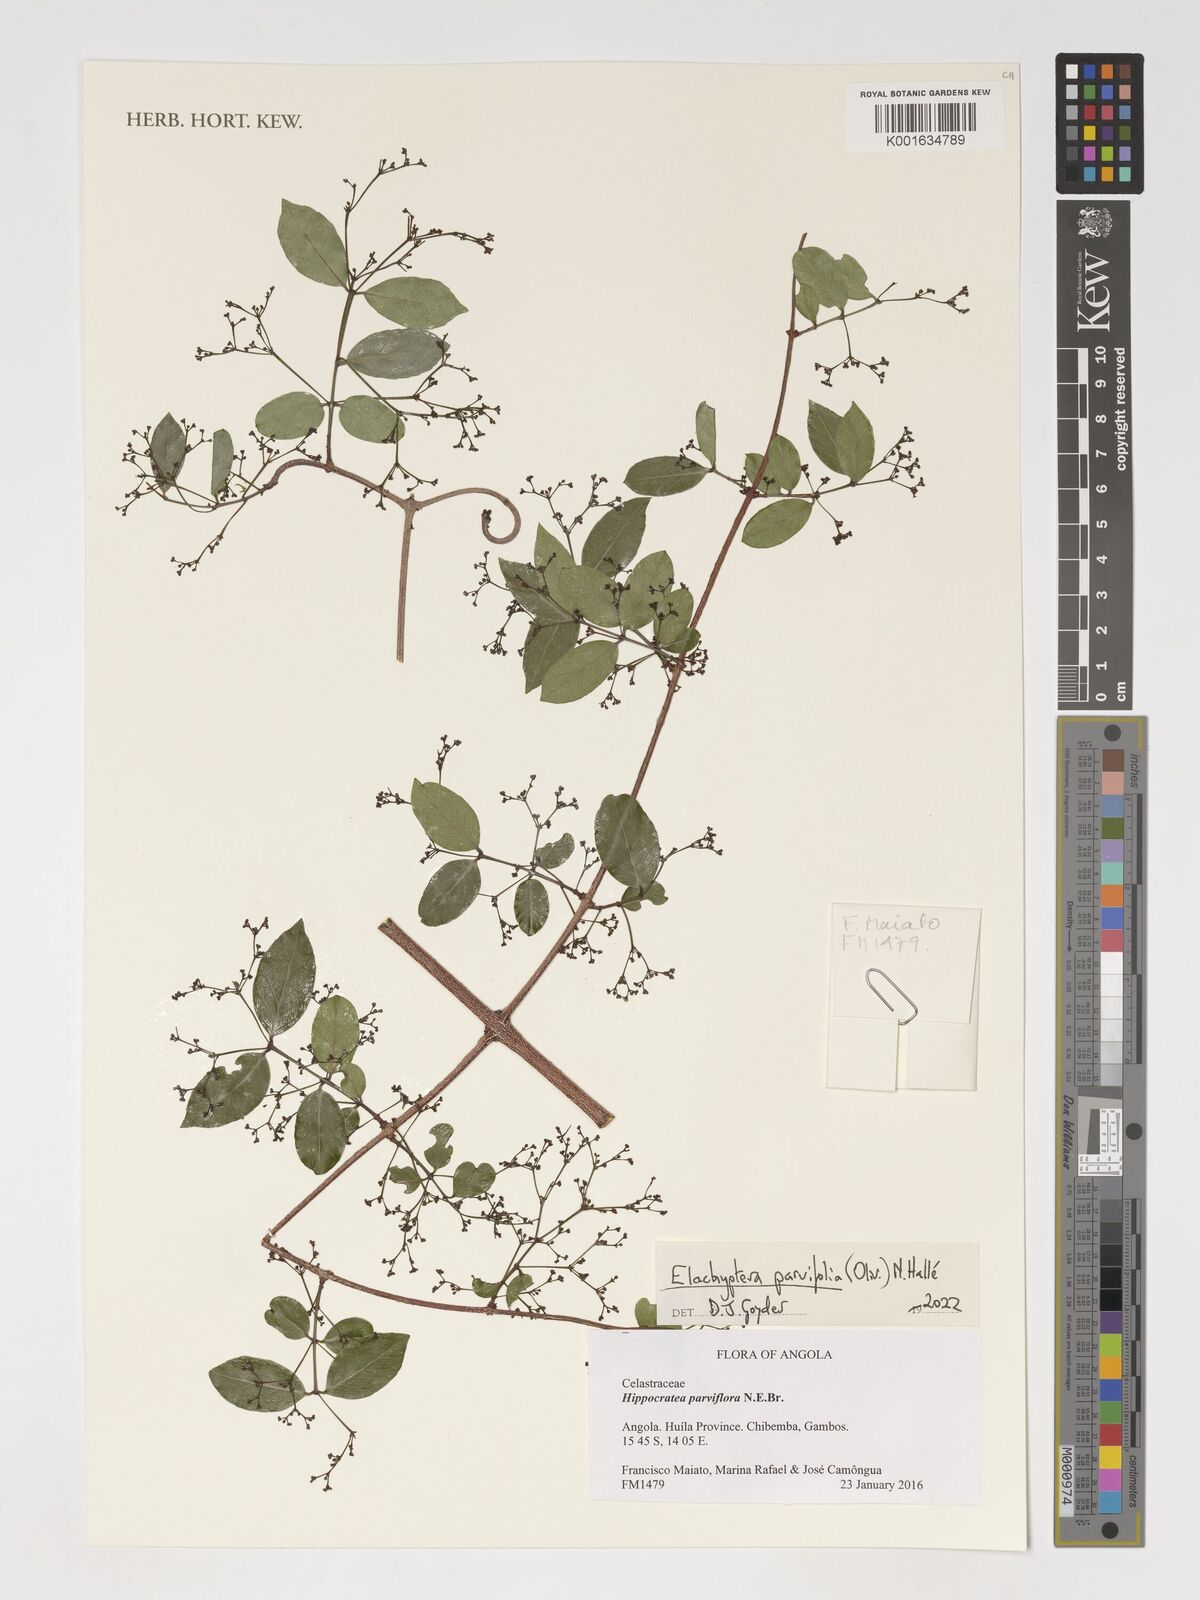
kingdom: Plantae
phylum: Tracheophyta
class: Magnoliopsida
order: Celastrales
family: Celastraceae
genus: Elachyptera
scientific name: Elachyptera parvifolia
